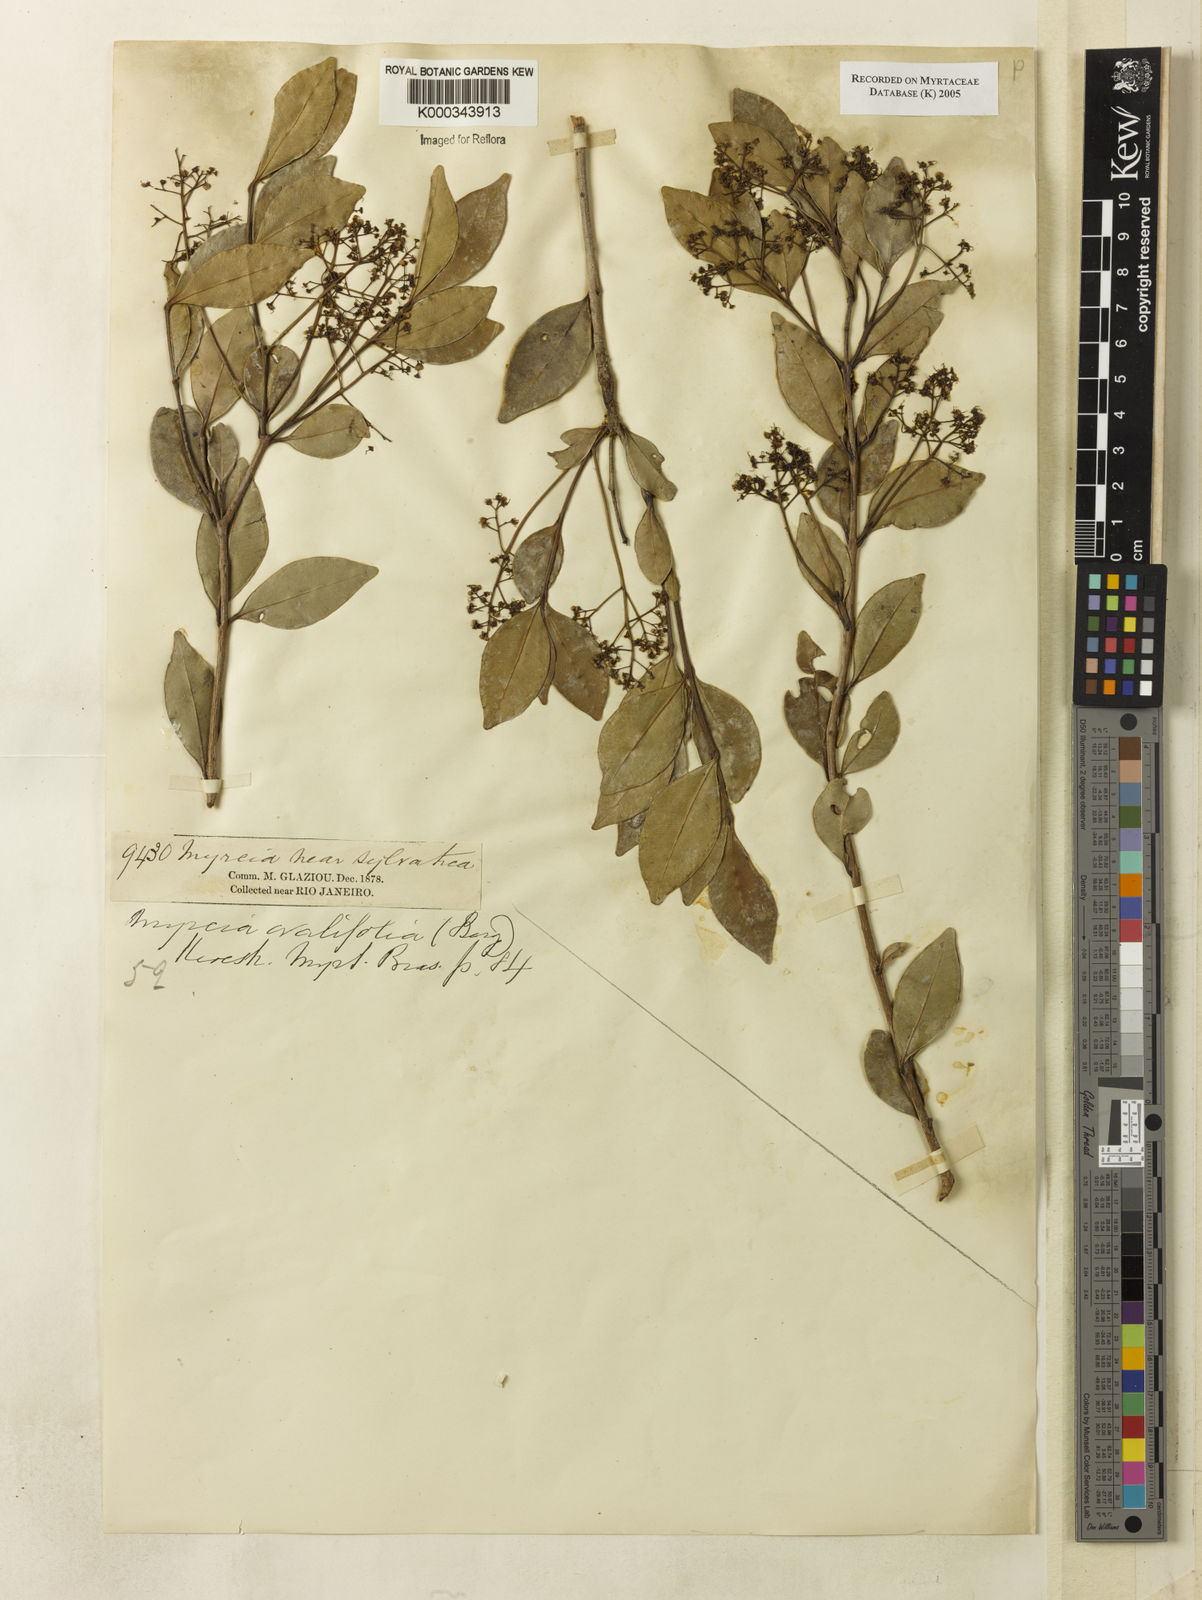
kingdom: Plantae
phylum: Tracheophyta
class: Magnoliopsida
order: Myrtales
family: Myrtaceae
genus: Myrcia
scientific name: Myrcia multiflora
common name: Pedra hume
